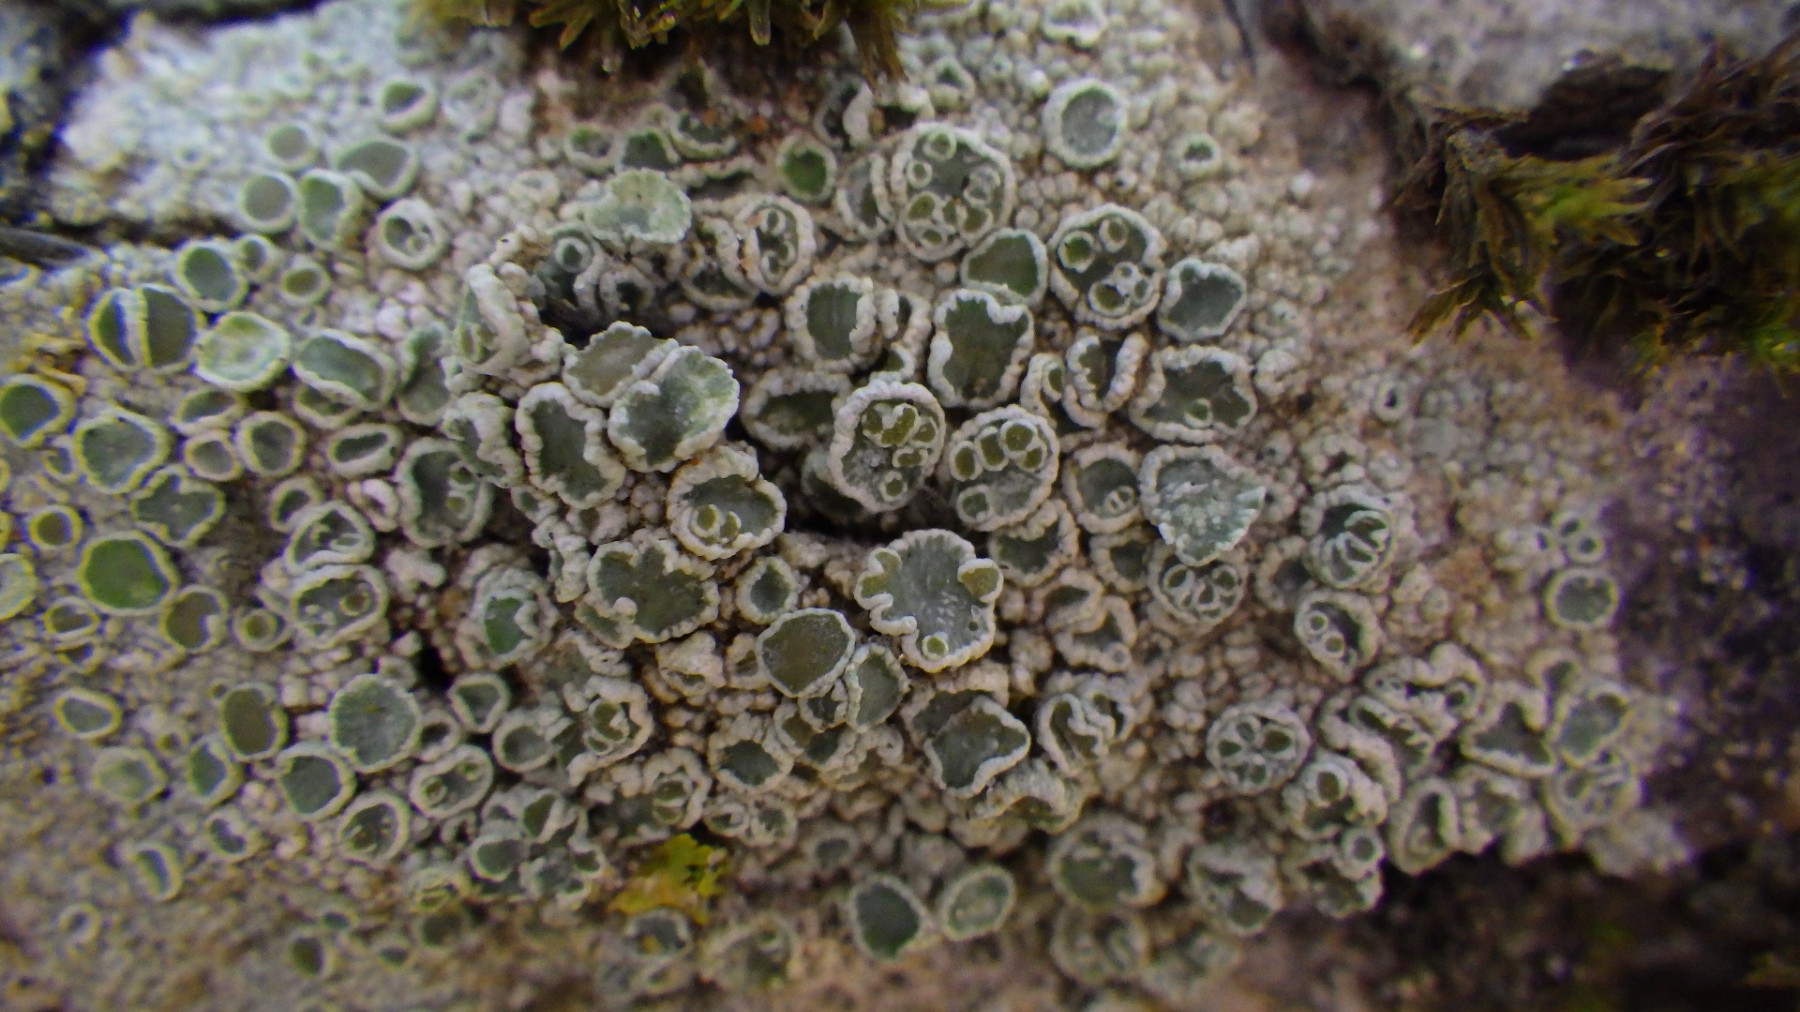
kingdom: Fungi
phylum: Ascomycota
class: Lecanoromycetes
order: Lecanorales
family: Lecanoraceae
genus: Lecanora
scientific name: Lecanora
